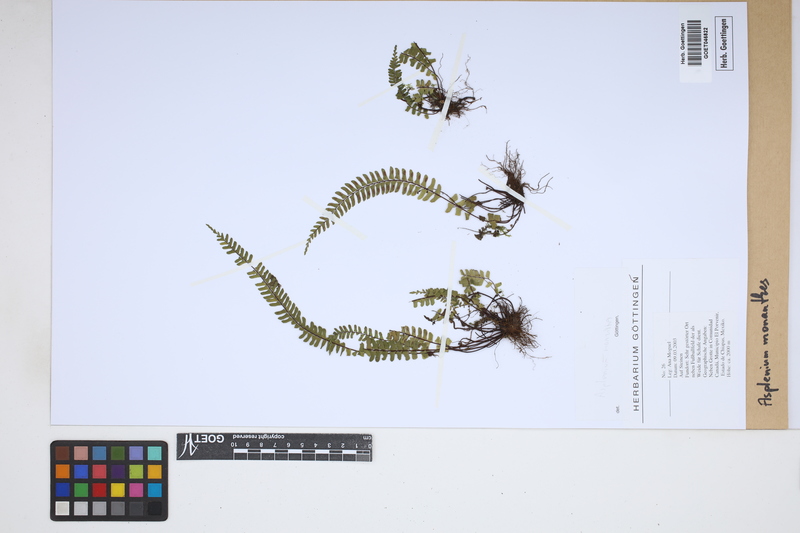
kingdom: Plantae
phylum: Tracheophyta
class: Polypodiopsida
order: Polypodiales
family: Aspleniaceae
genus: Asplenium
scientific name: Asplenium monanthes
